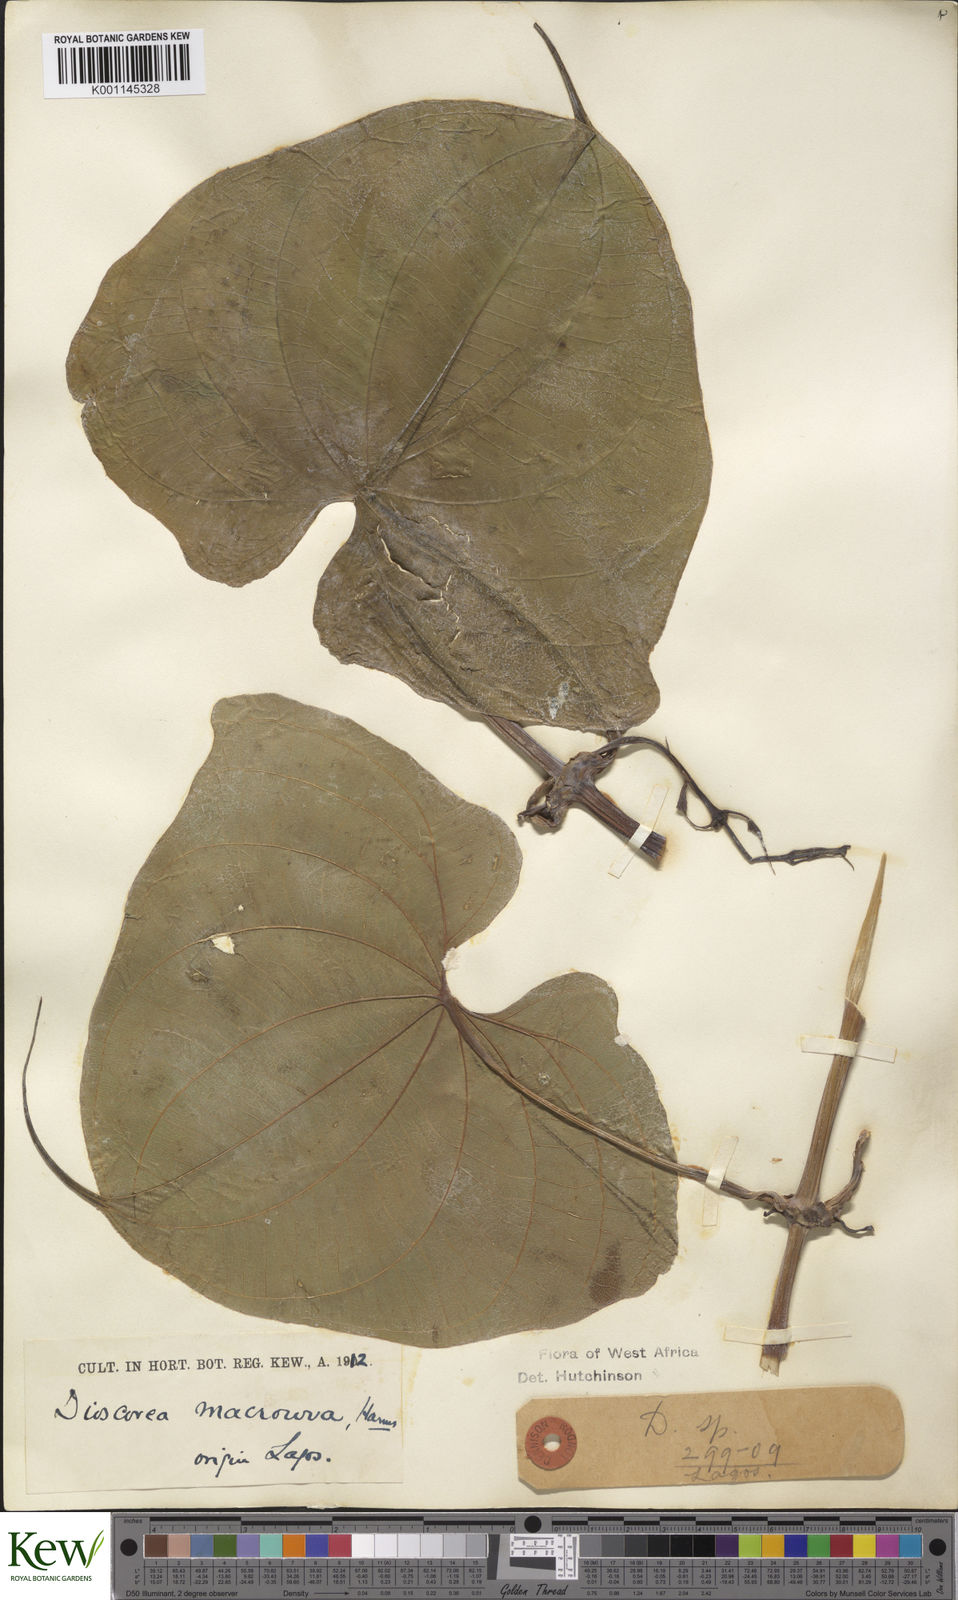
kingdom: Plantae
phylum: Tracheophyta
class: Liliopsida
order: Dioscoreales
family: Dioscoreaceae
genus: Dioscorea
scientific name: Dioscorea sansibarensis
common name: Zanzibar yam
